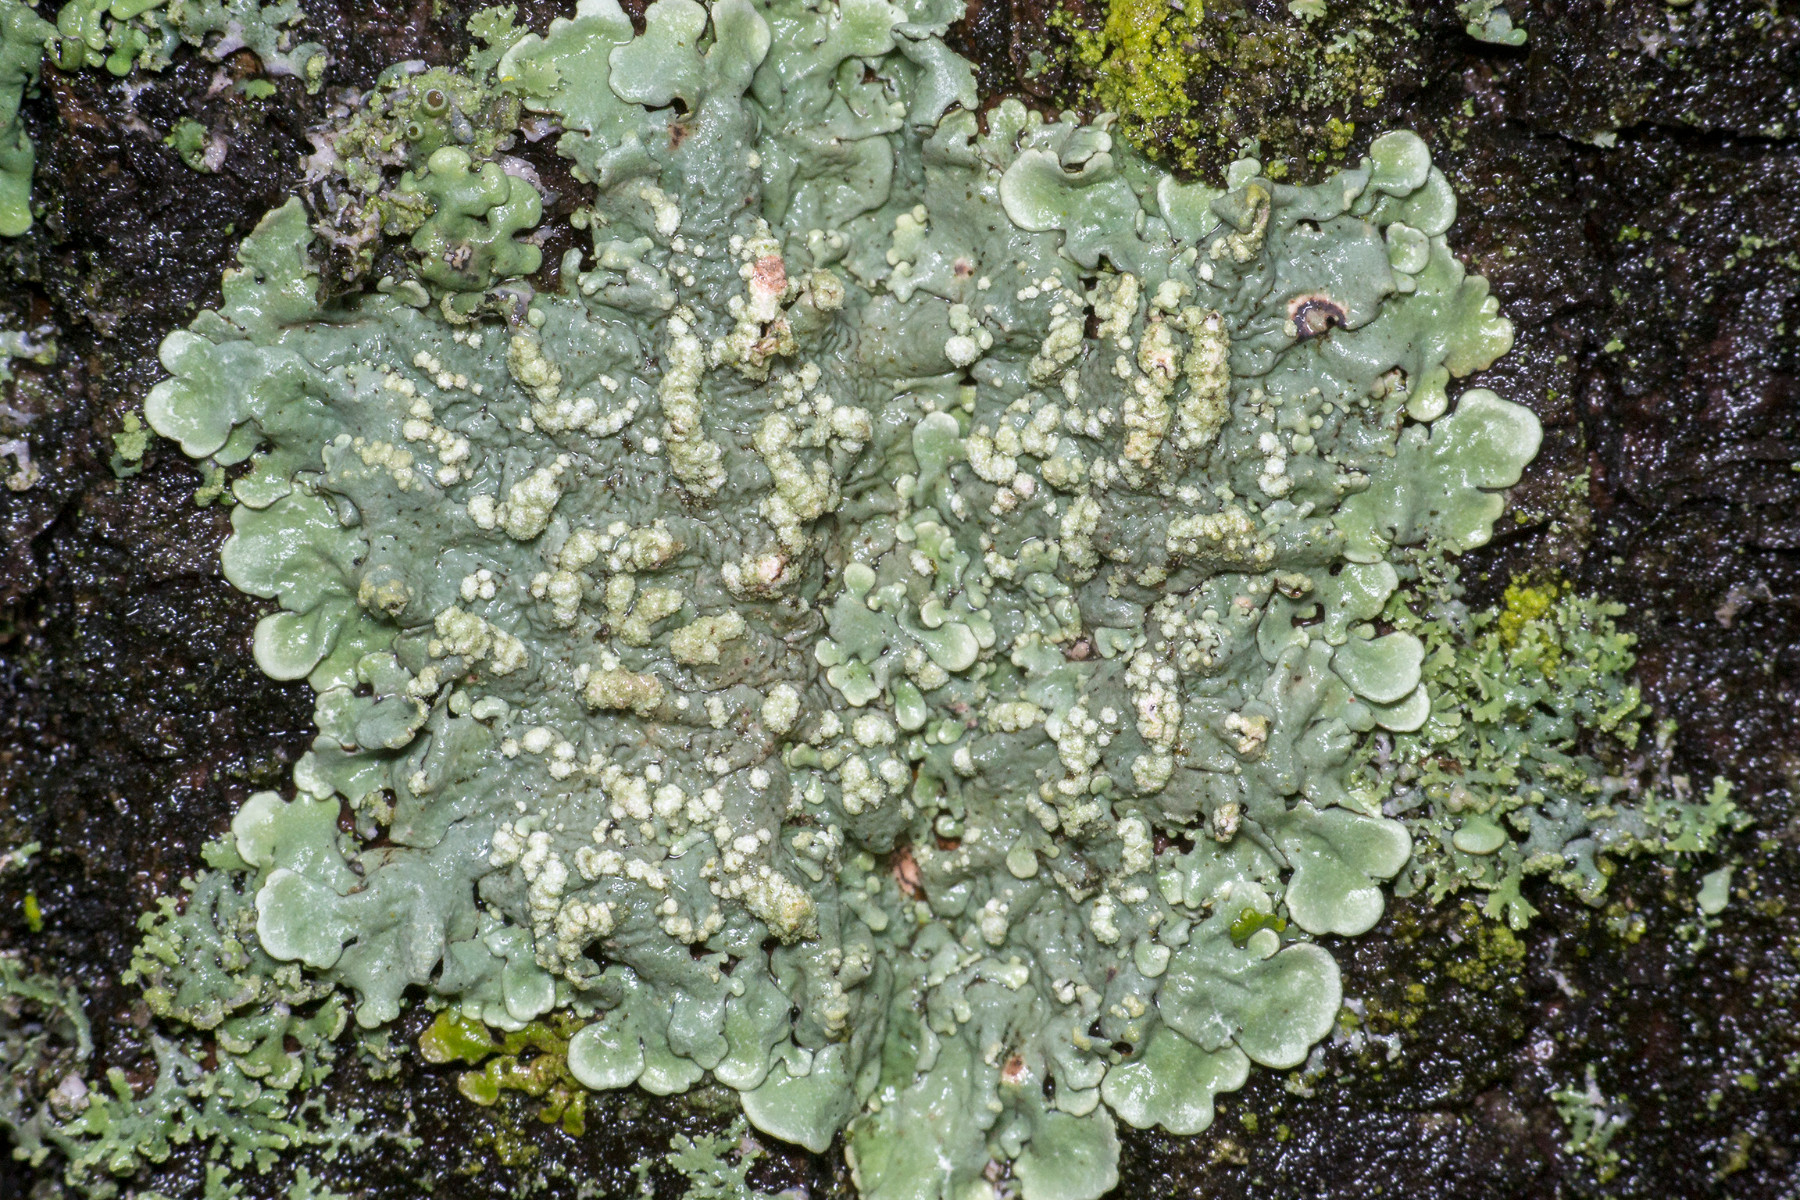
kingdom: Fungi
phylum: Ascomycota
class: Lecanoromycetes
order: Lecanorales
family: Parmeliaceae
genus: Flavoparmelia
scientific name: Flavoparmelia soredians
